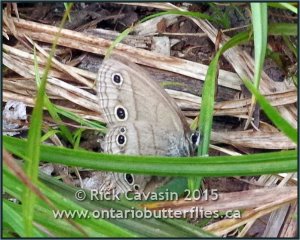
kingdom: Animalia
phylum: Arthropoda
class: Insecta
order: Lepidoptera
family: Nymphalidae
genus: Euptychia
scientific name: Euptychia cymela
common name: Little Wood Satyr
